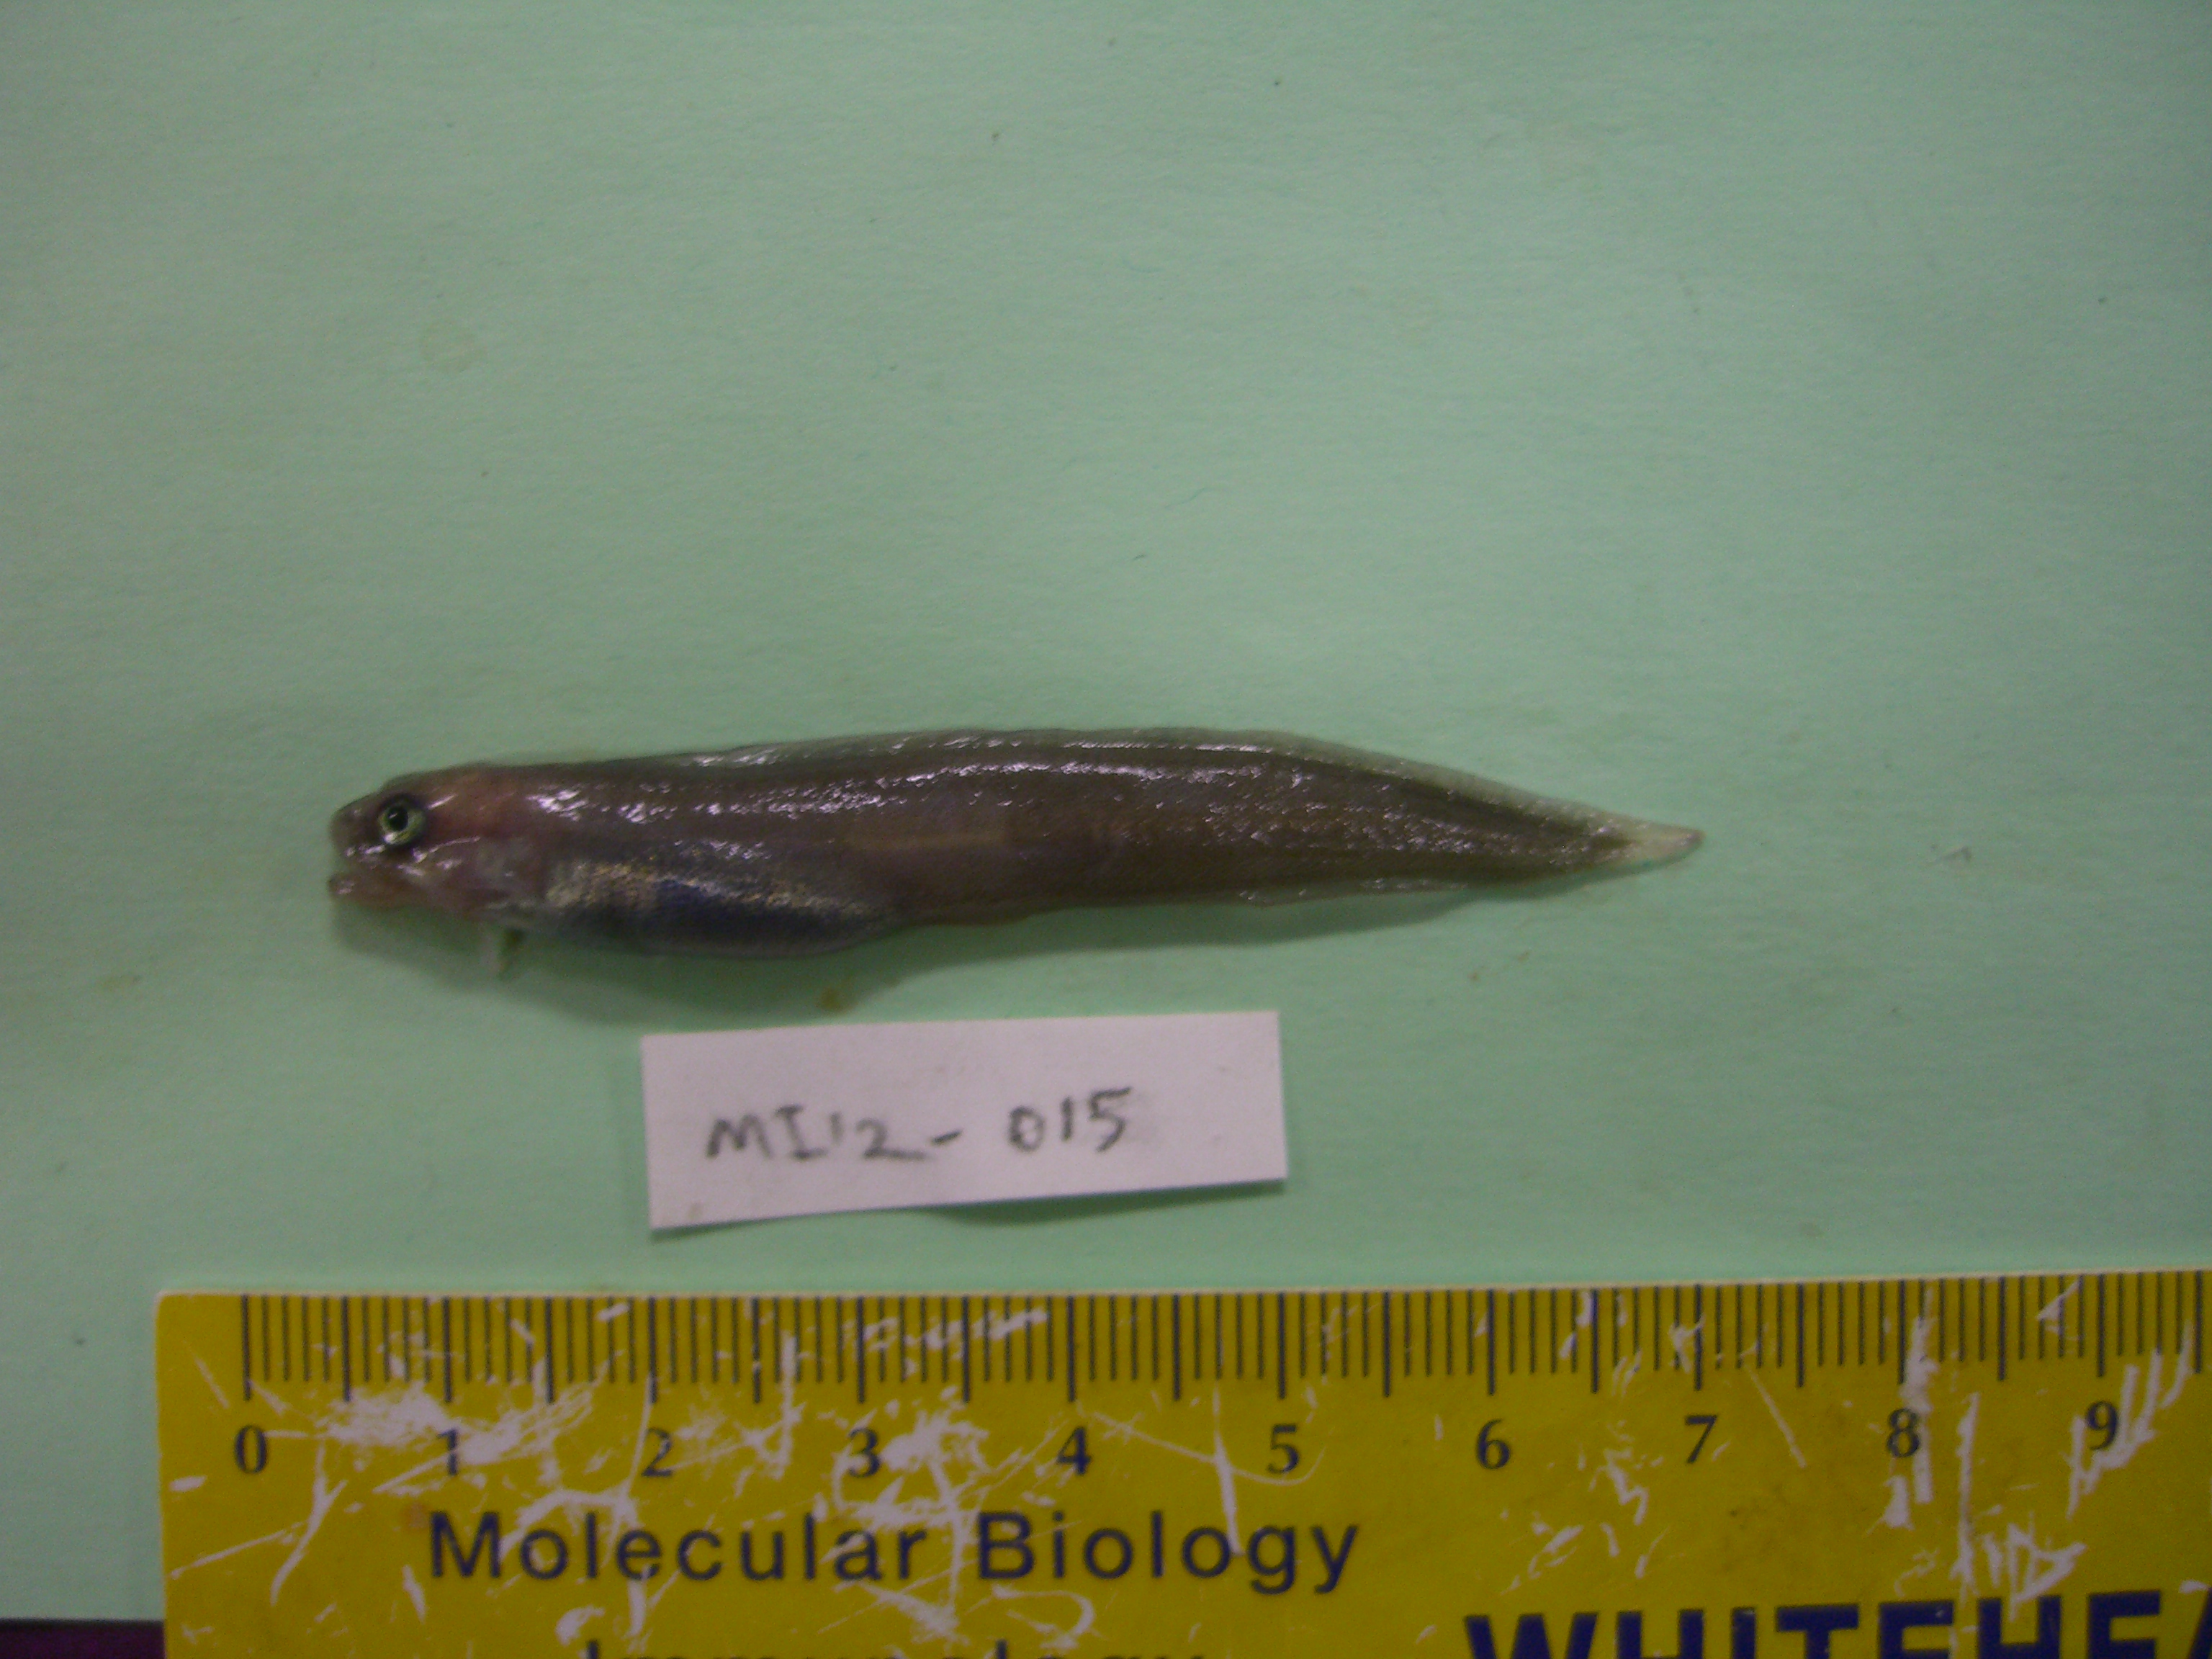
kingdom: Animalia
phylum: Chordata
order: Gadiformes
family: Muraenolepididae
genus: Muraenolepis
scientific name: Muraenolepis
